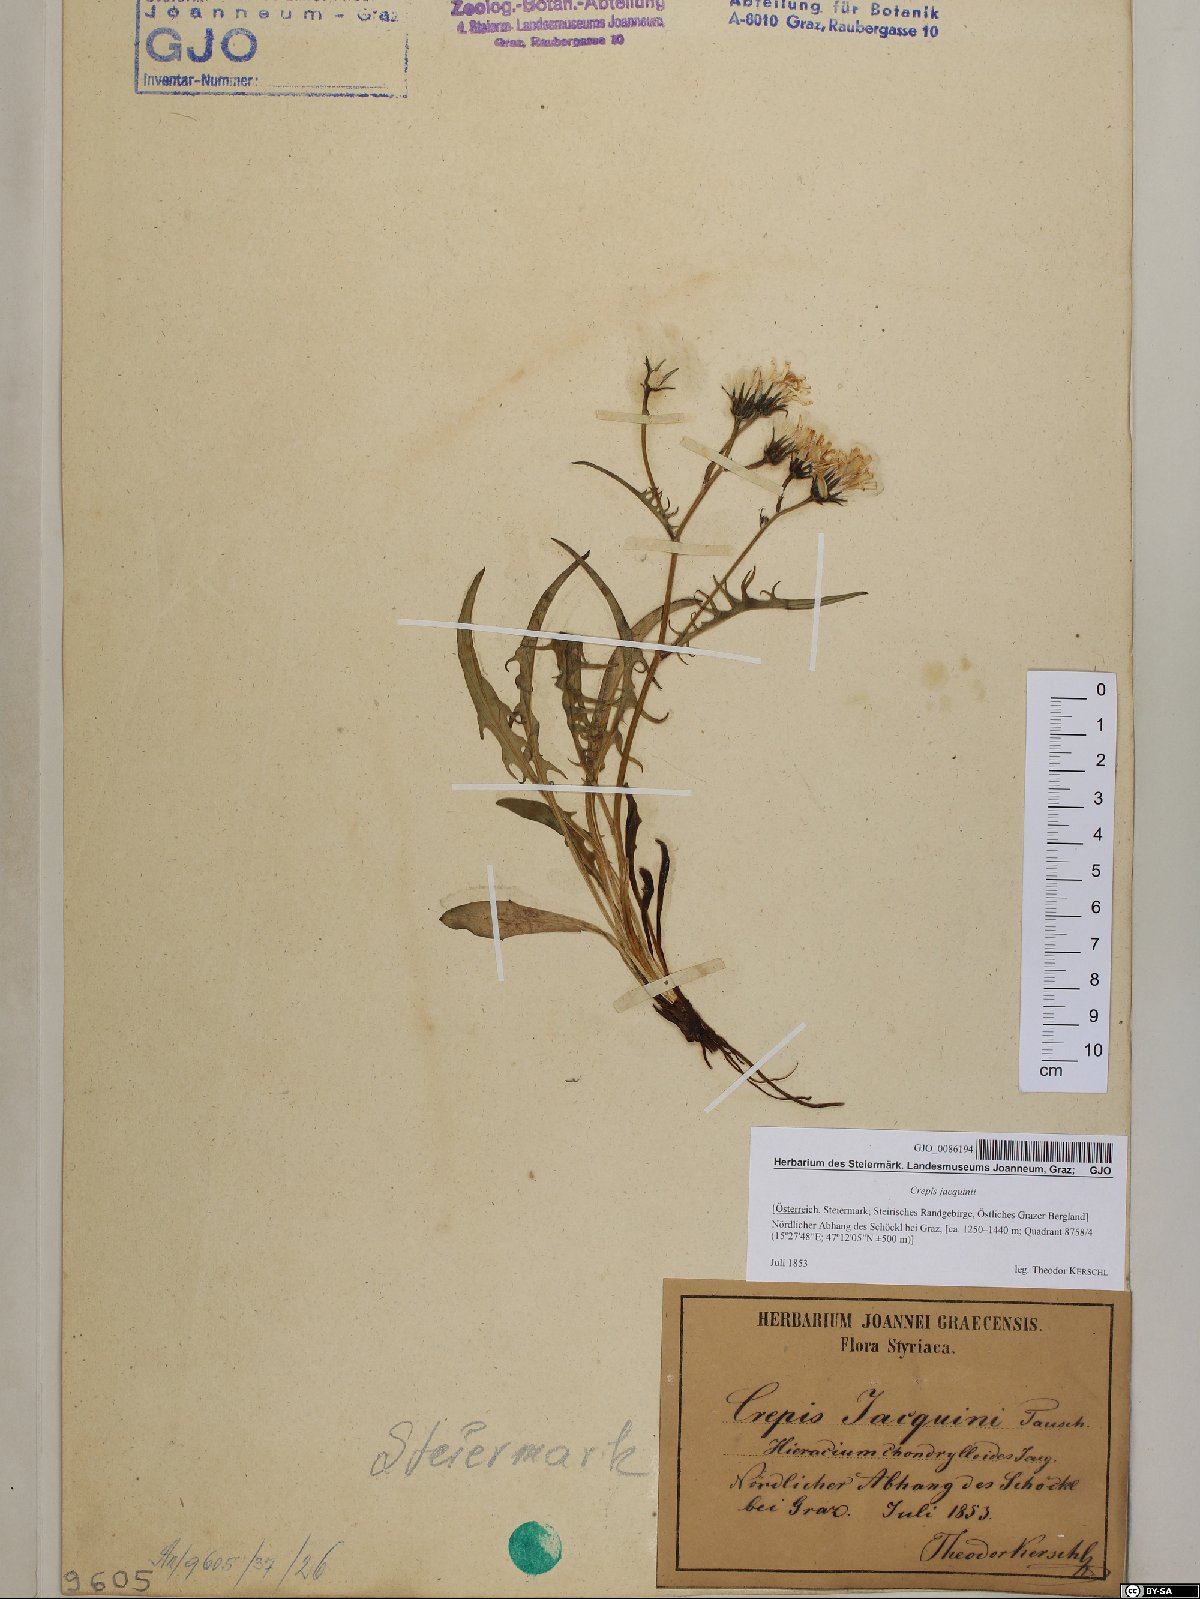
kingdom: Plantae
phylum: Tracheophyta
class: Magnoliopsida
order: Asterales
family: Asteraceae
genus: Crepis
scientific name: Crepis jacquinii
